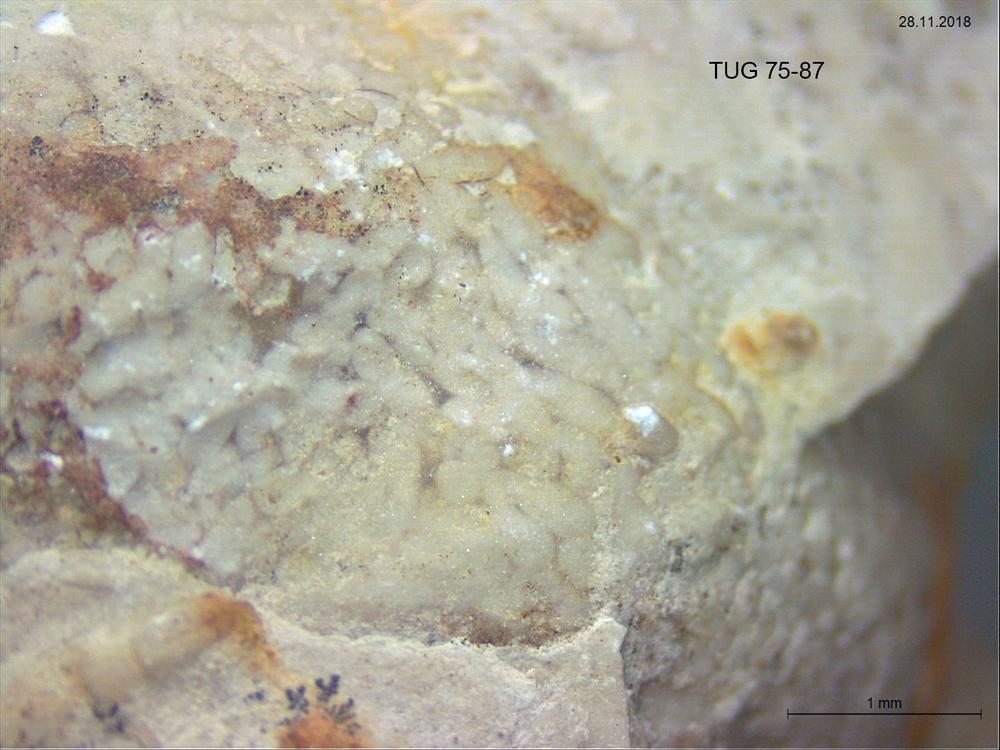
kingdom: Animalia
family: Coprulidae
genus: Coprulus
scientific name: Coprulus
